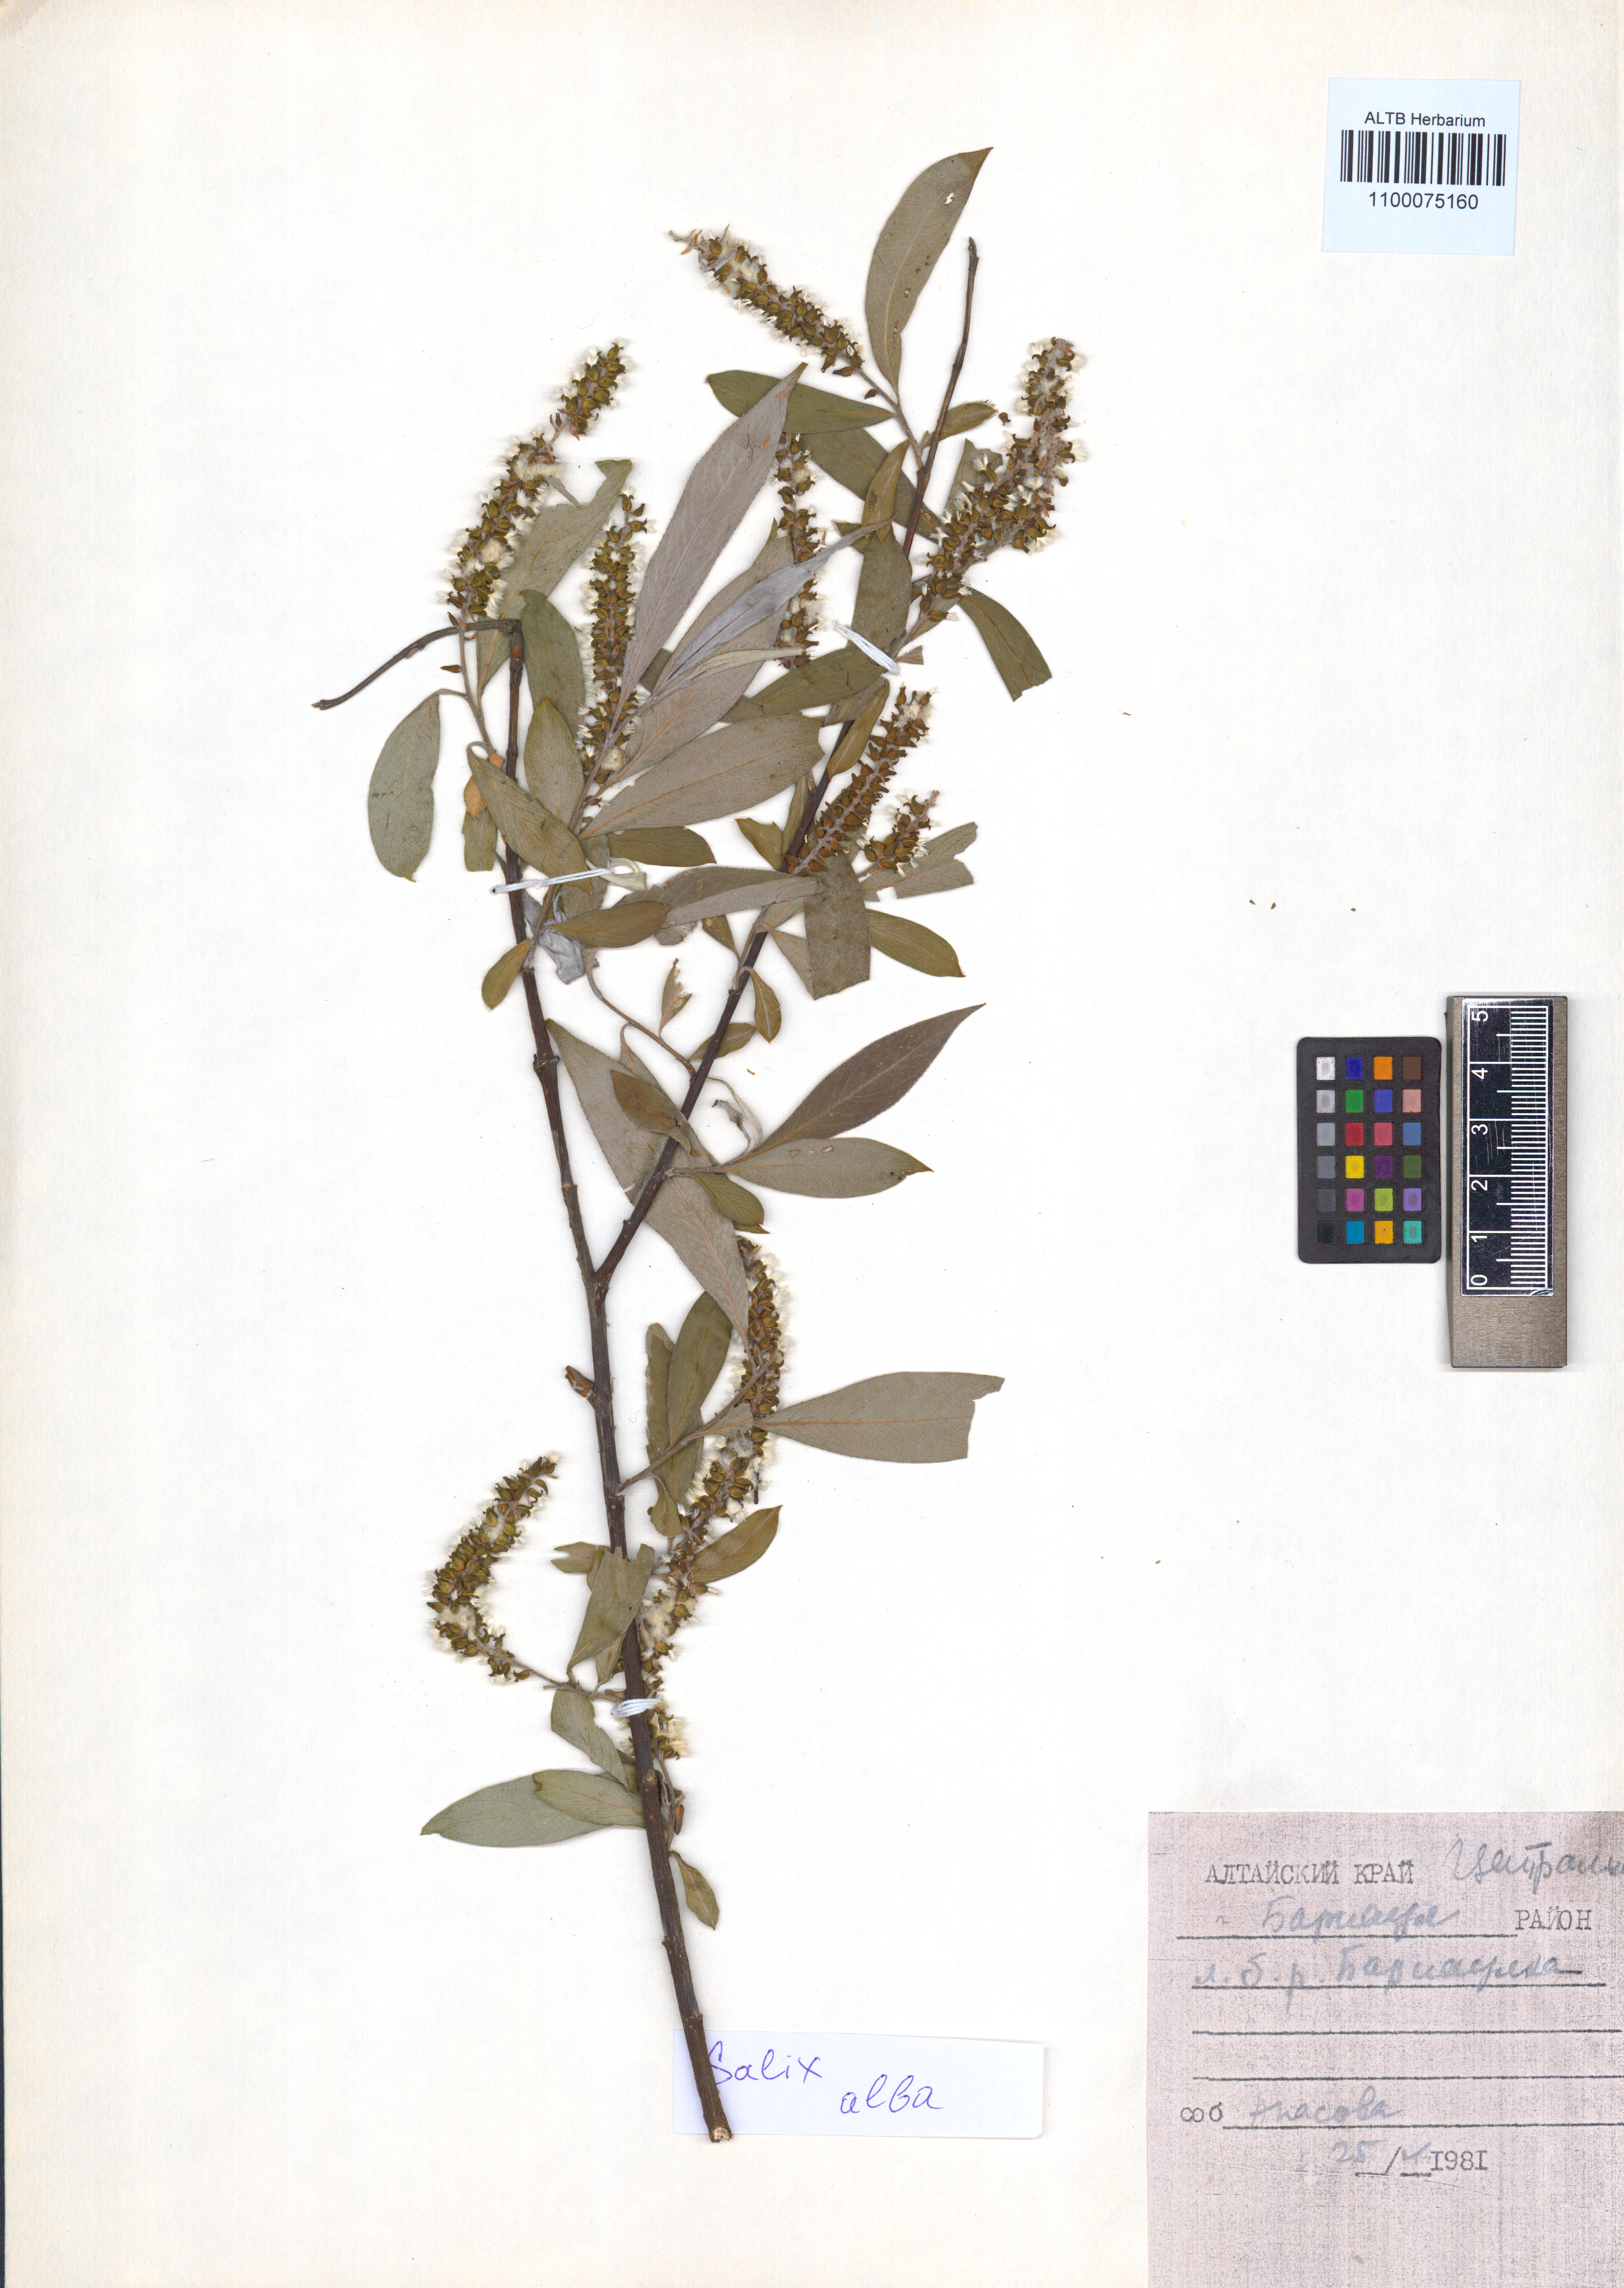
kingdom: Plantae
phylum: Tracheophyta
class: Magnoliopsida
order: Malpighiales
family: Salicaceae
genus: Salix
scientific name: Salix alba
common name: White willow
